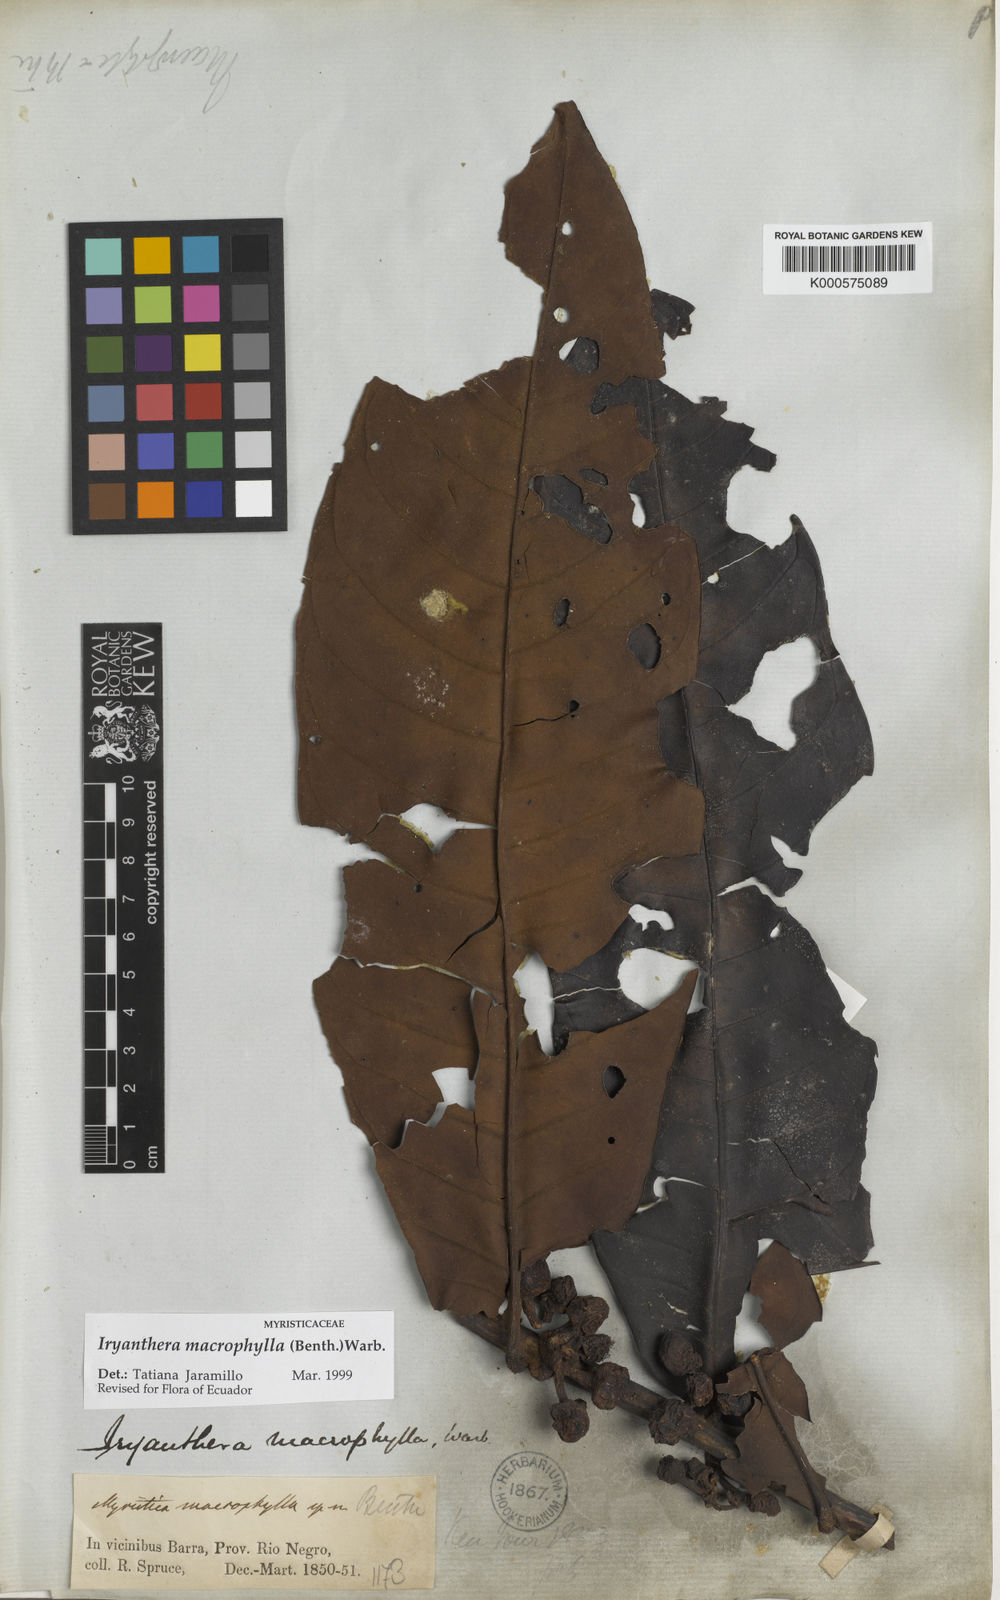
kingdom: Plantae
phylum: Tracheophyta
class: Magnoliopsida
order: Magnoliales
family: Myristicaceae
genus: Iryanthera
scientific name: Iryanthera macrophylla
